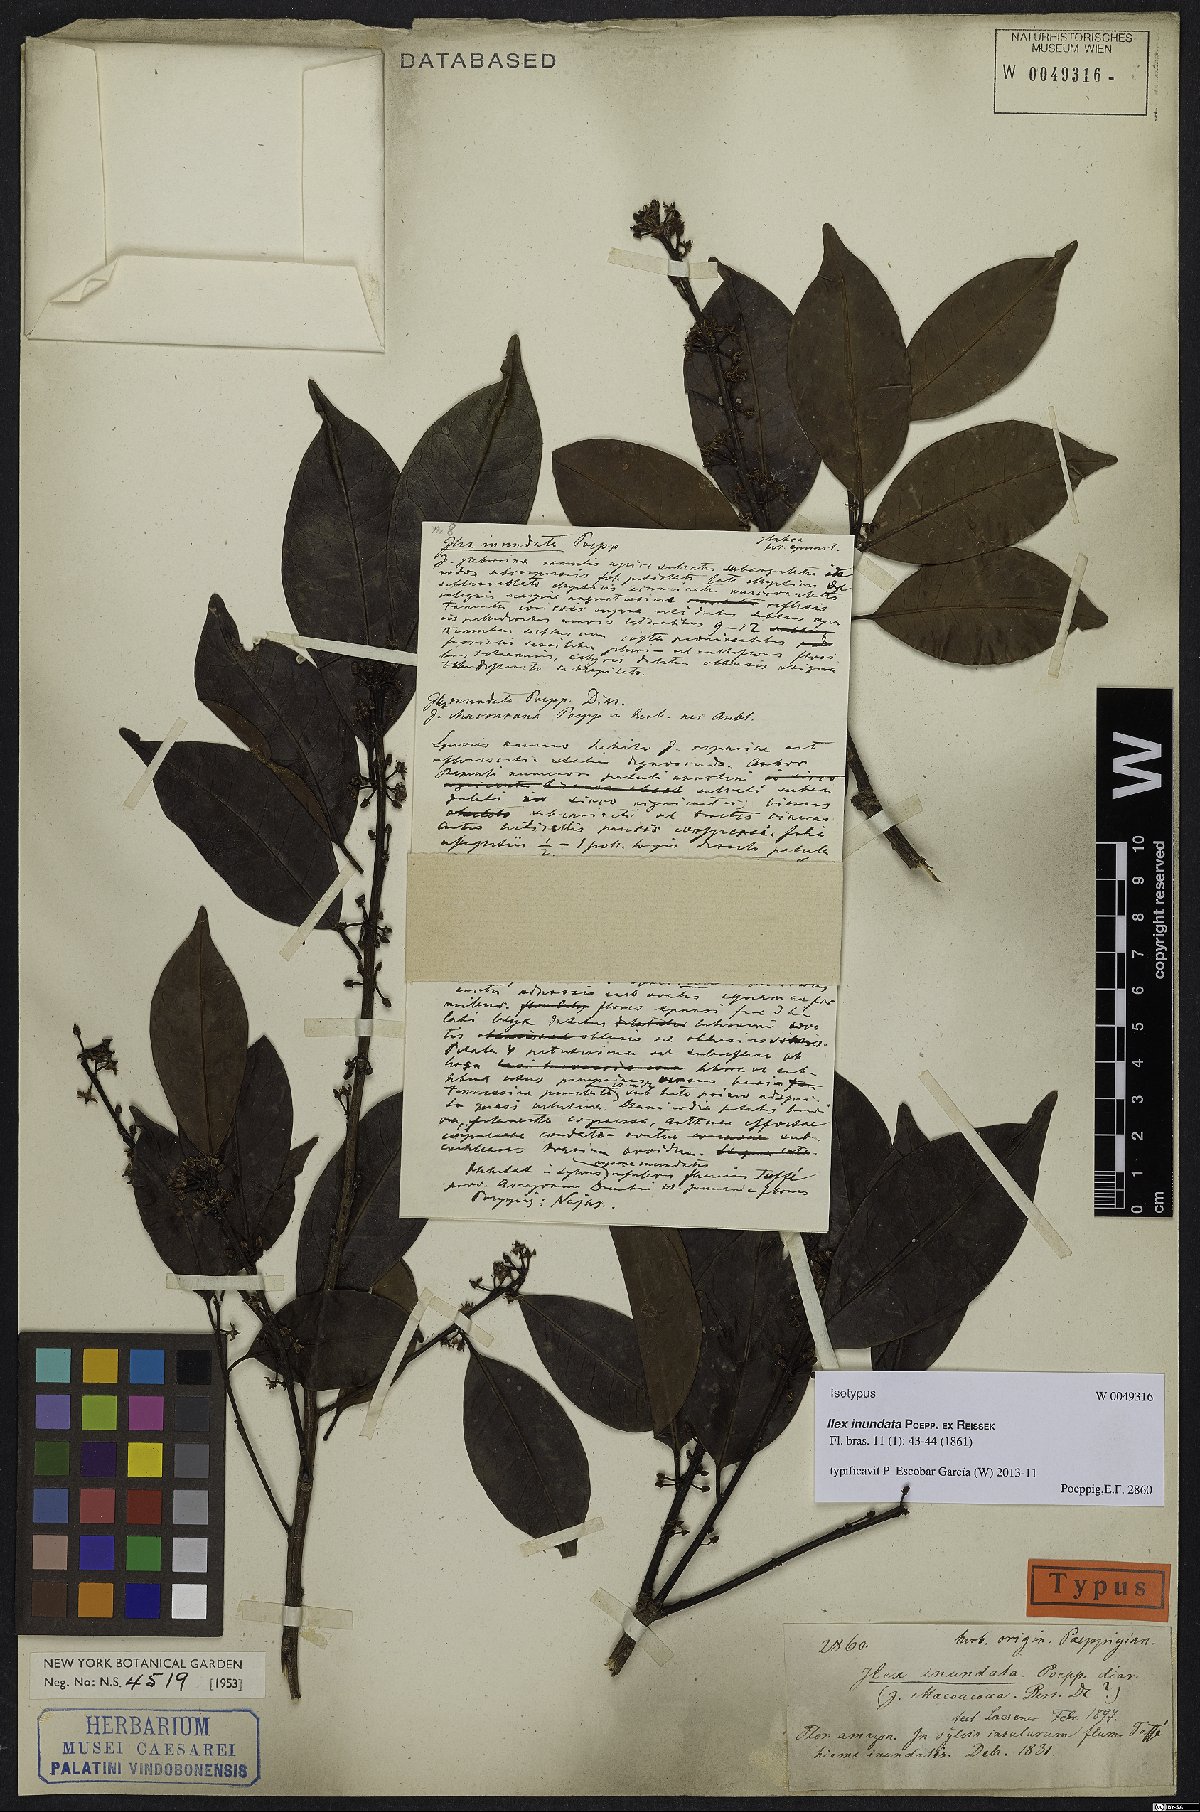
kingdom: Plantae
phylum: Tracheophyta
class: Magnoliopsida
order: Aquifoliales
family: Aquifoliaceae
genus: Ilex
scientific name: Ilex inundata
